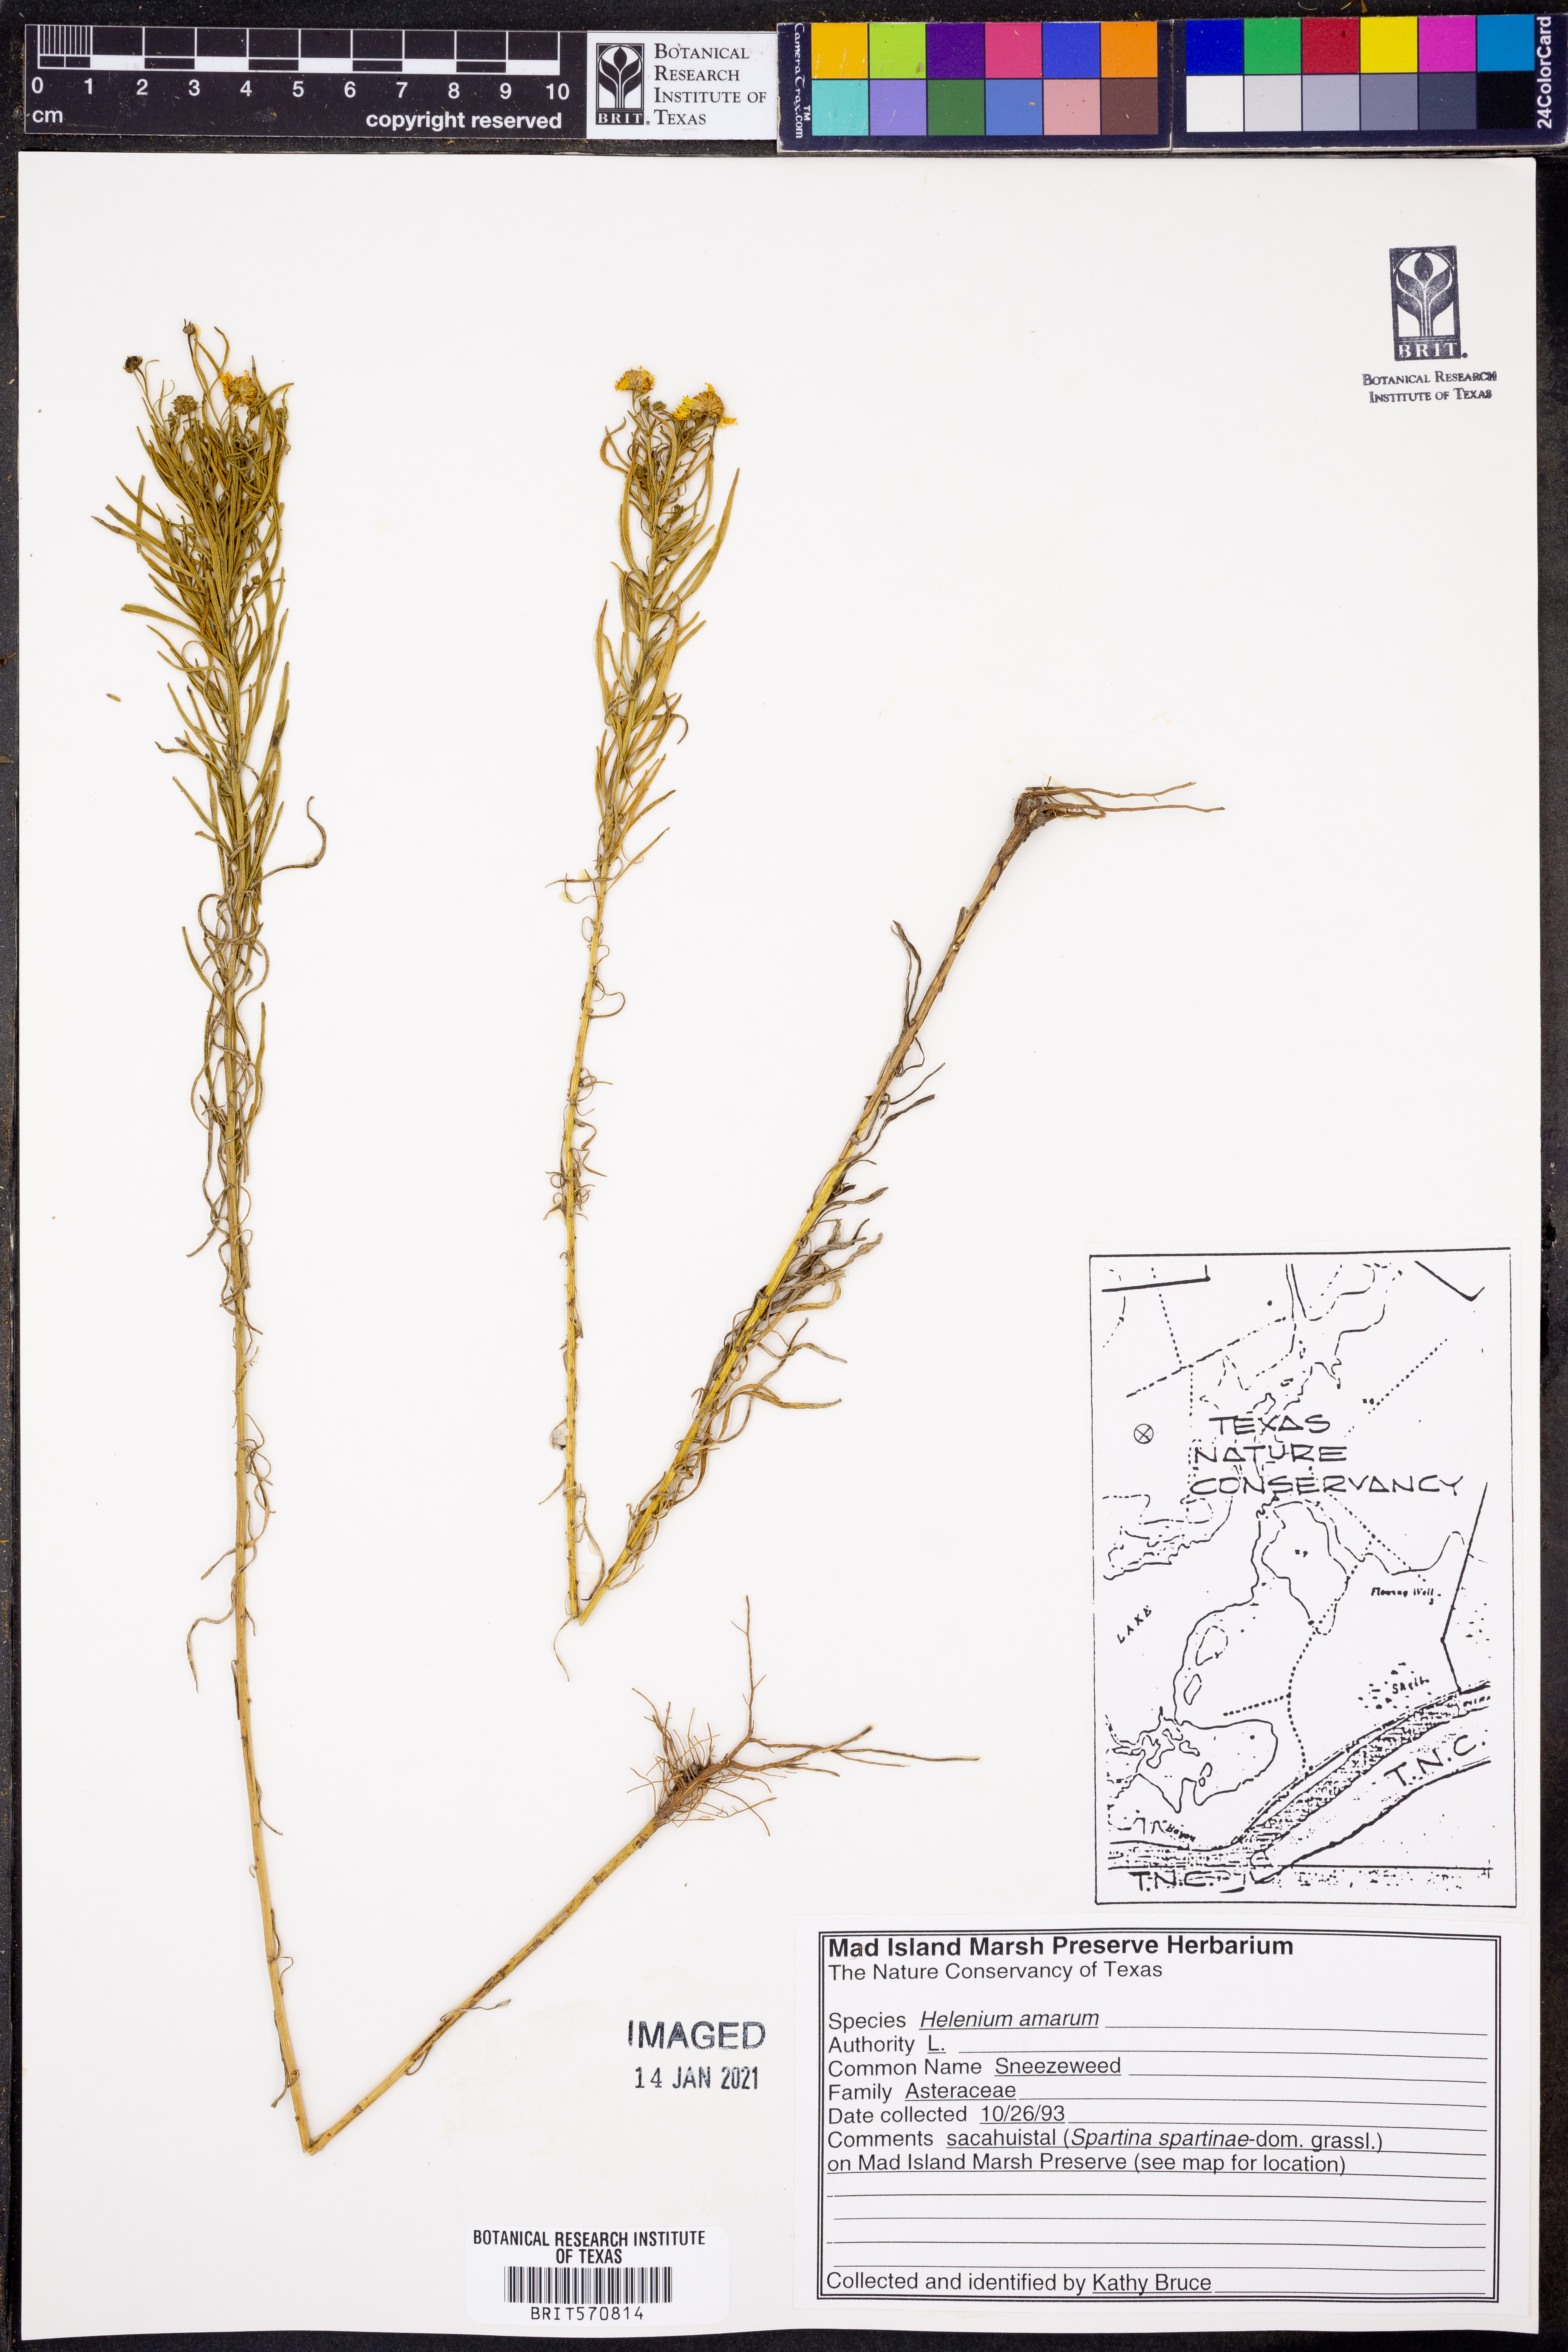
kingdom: Plantae
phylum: Tracheophyta
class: Magnoliopsida
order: Asterales
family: Asteraceae
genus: Helenium
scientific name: Helenium amarum
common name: Bitter sneezeweed
